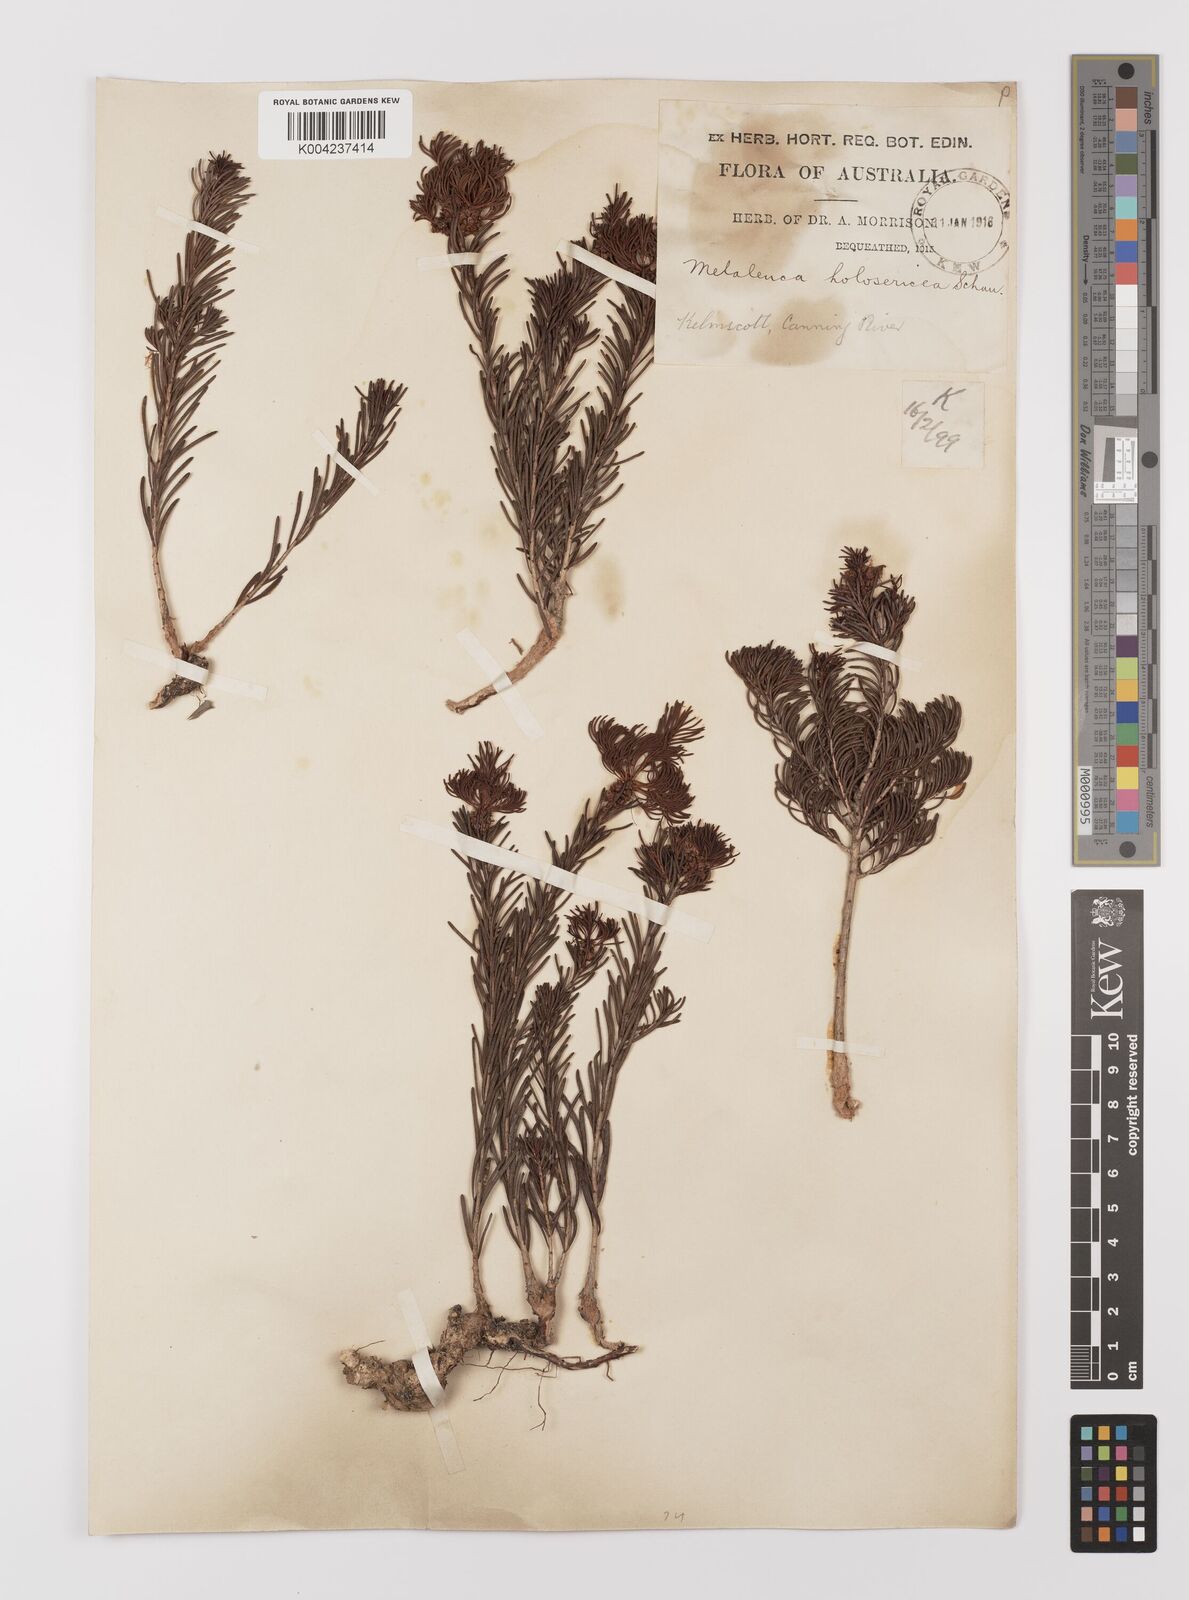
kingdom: Plantae
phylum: Tracheophyta
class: Magnoliopsida
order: Myrtales
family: Myrtaceae
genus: Melaleuca
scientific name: Melaleuca
